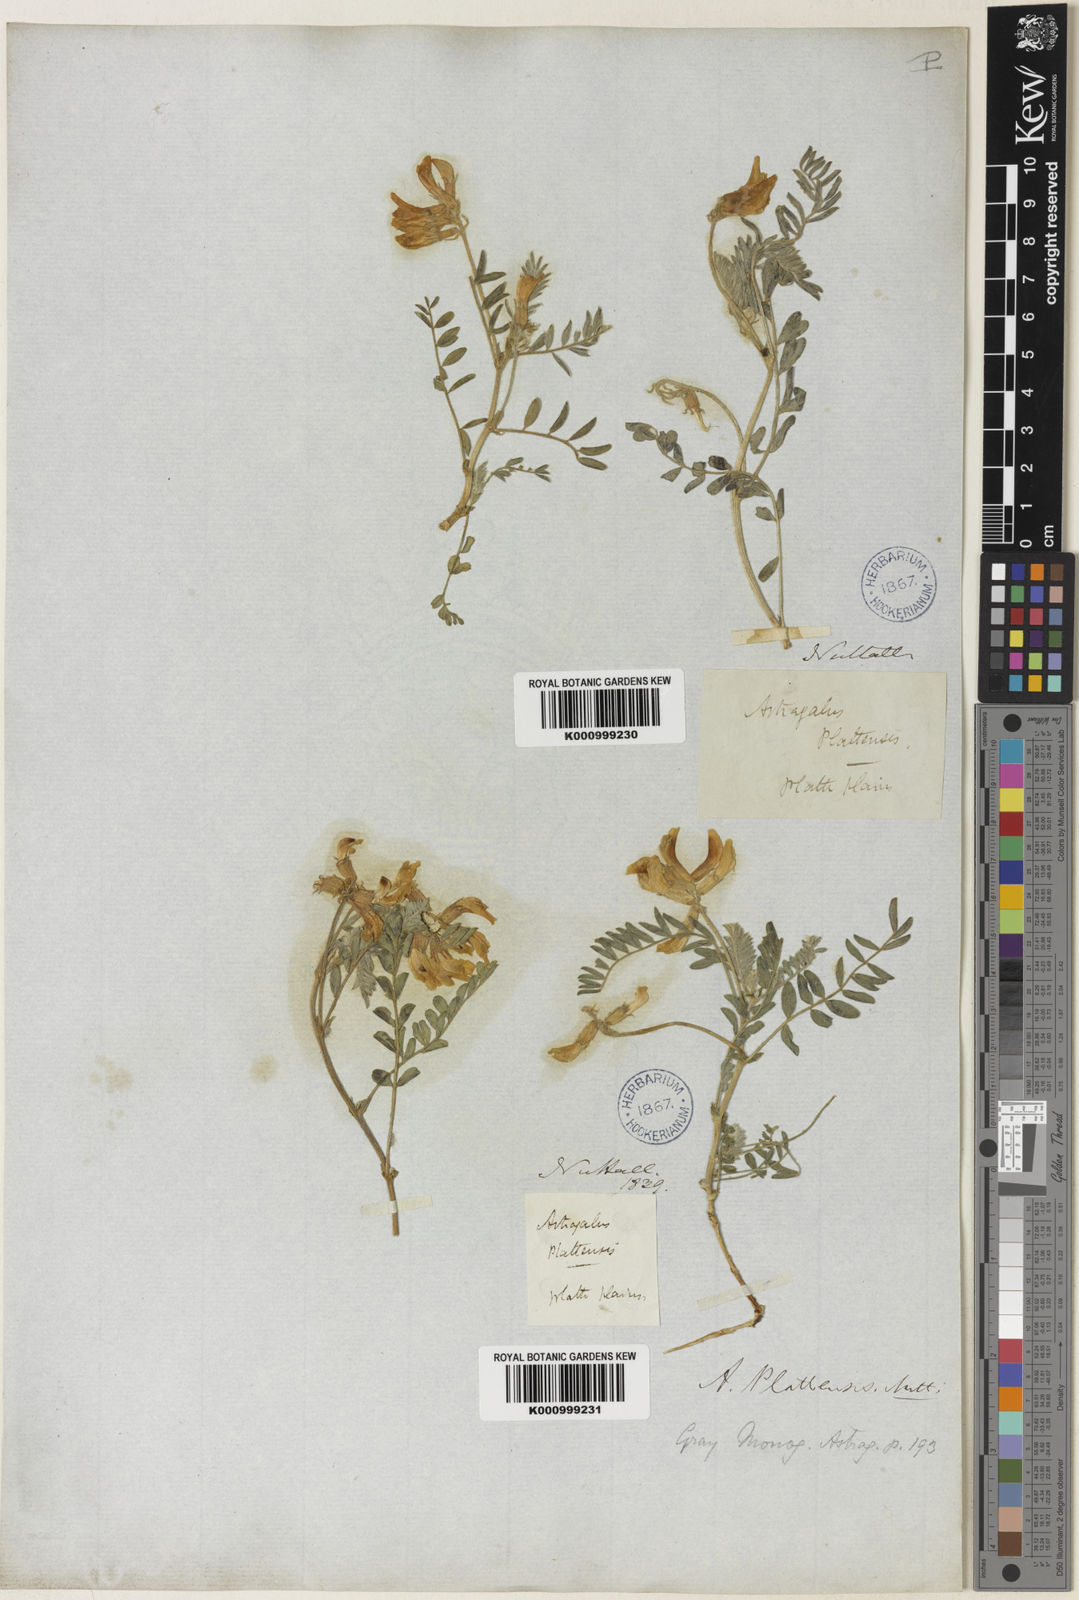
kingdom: Plantae
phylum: Tracheophyta
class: Magnoliopsida
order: Fabales
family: Fabaceae
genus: Astragalus
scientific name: Astragalus plattensis
